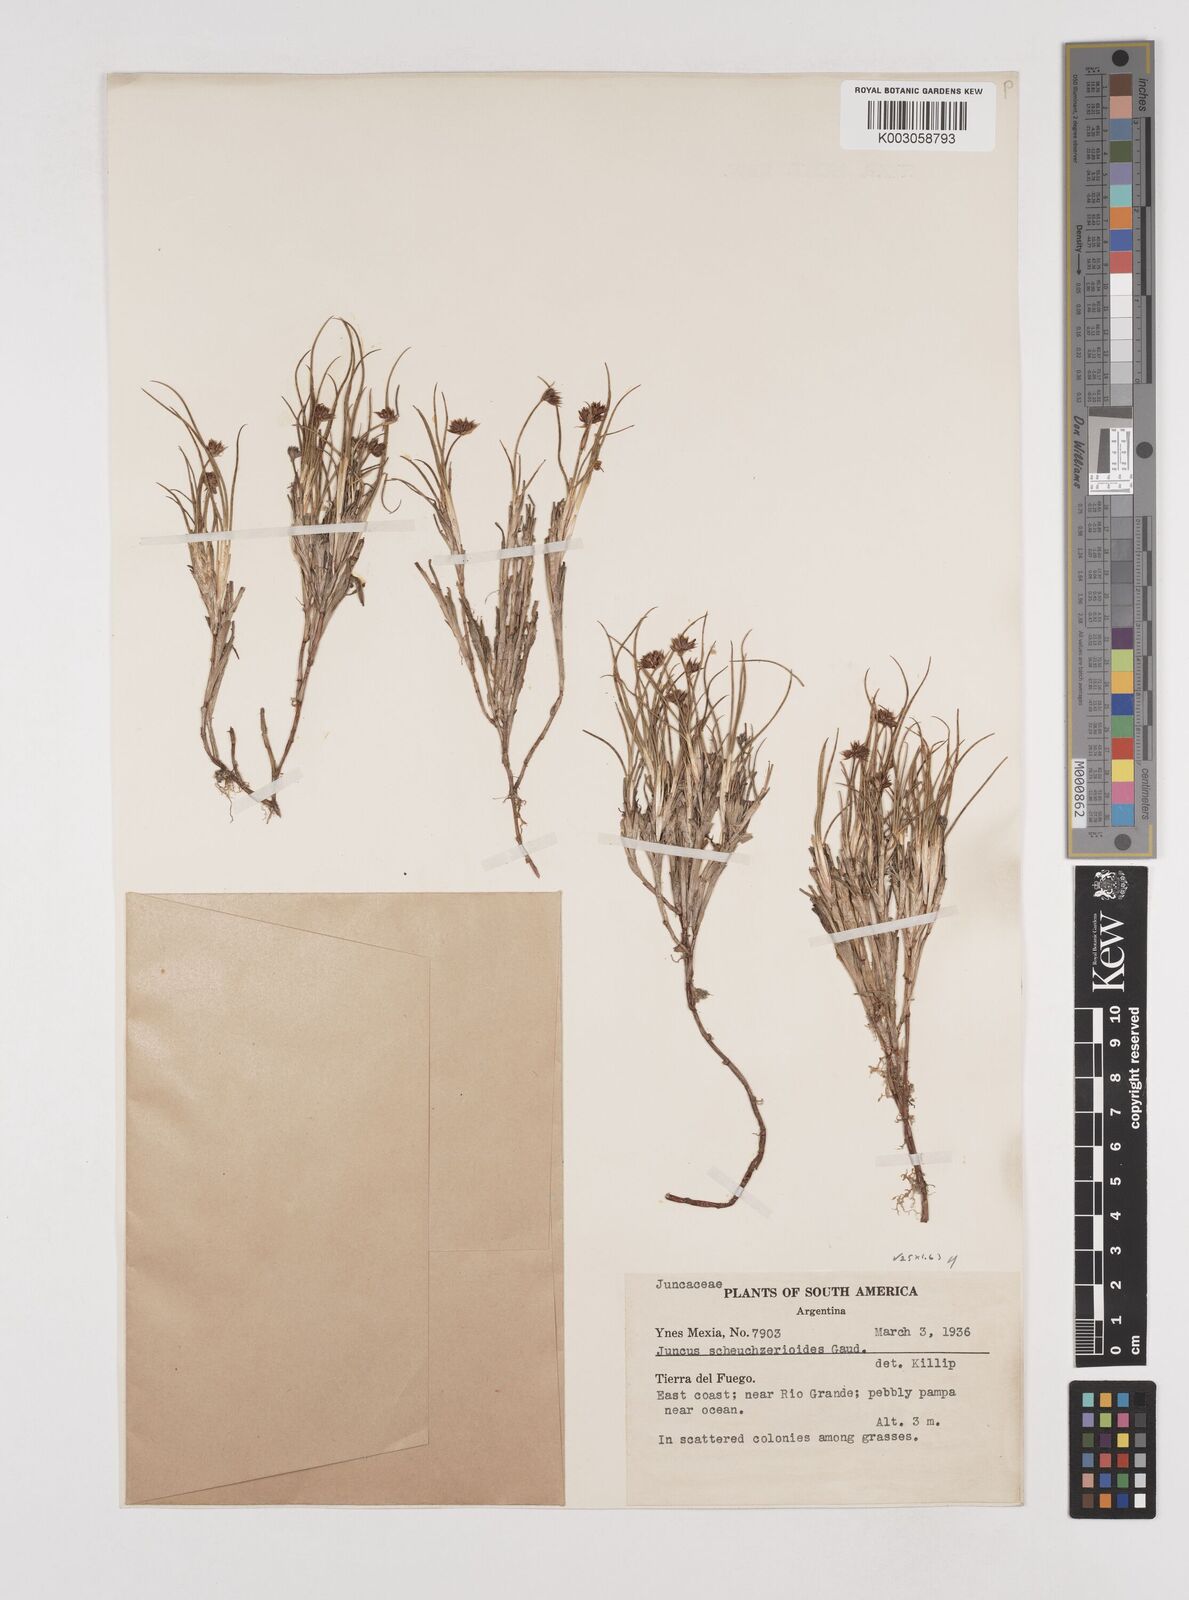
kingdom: Plantae
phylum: Tracheophyta
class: Liliopsida
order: Poales
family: Juncaceae
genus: Juncus
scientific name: Juncus scheuchzerioides
